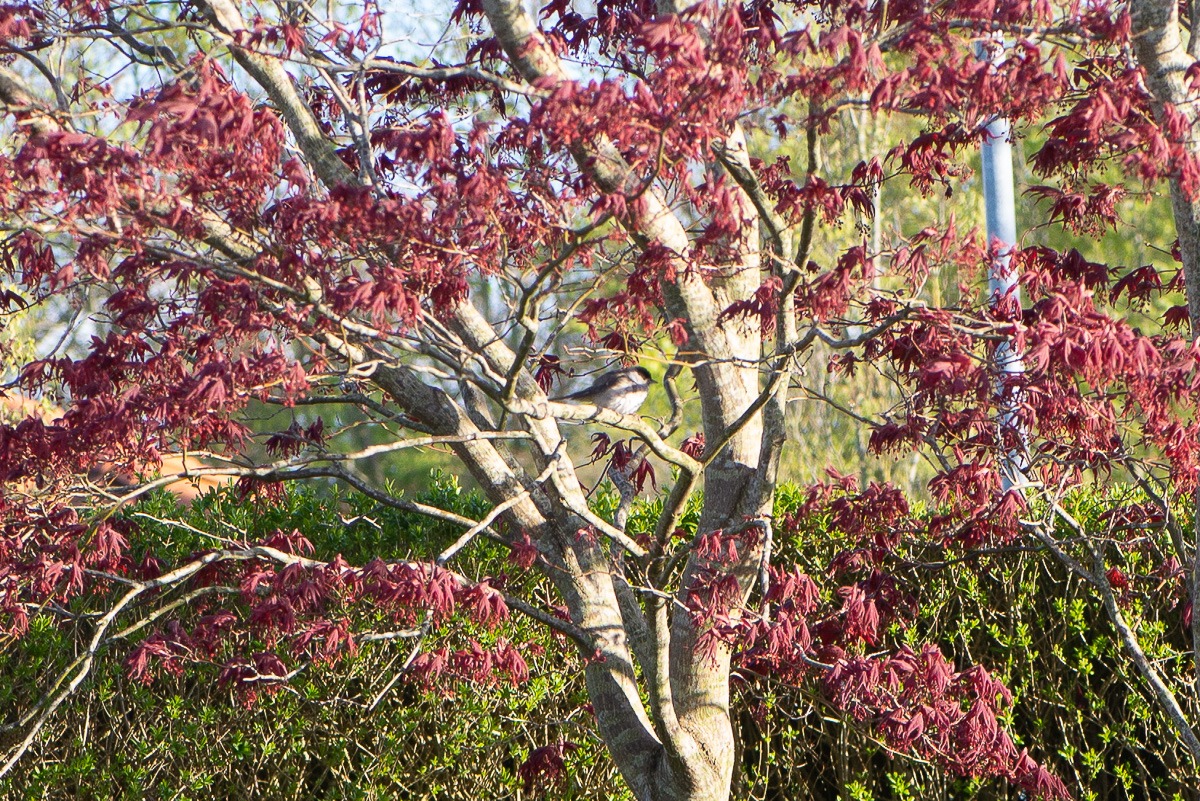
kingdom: Animalia
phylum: Chordata
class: Aves
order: Passeriformes
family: Sylviidae
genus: Sylvia
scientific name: Sylvia atricapilla
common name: Munk
